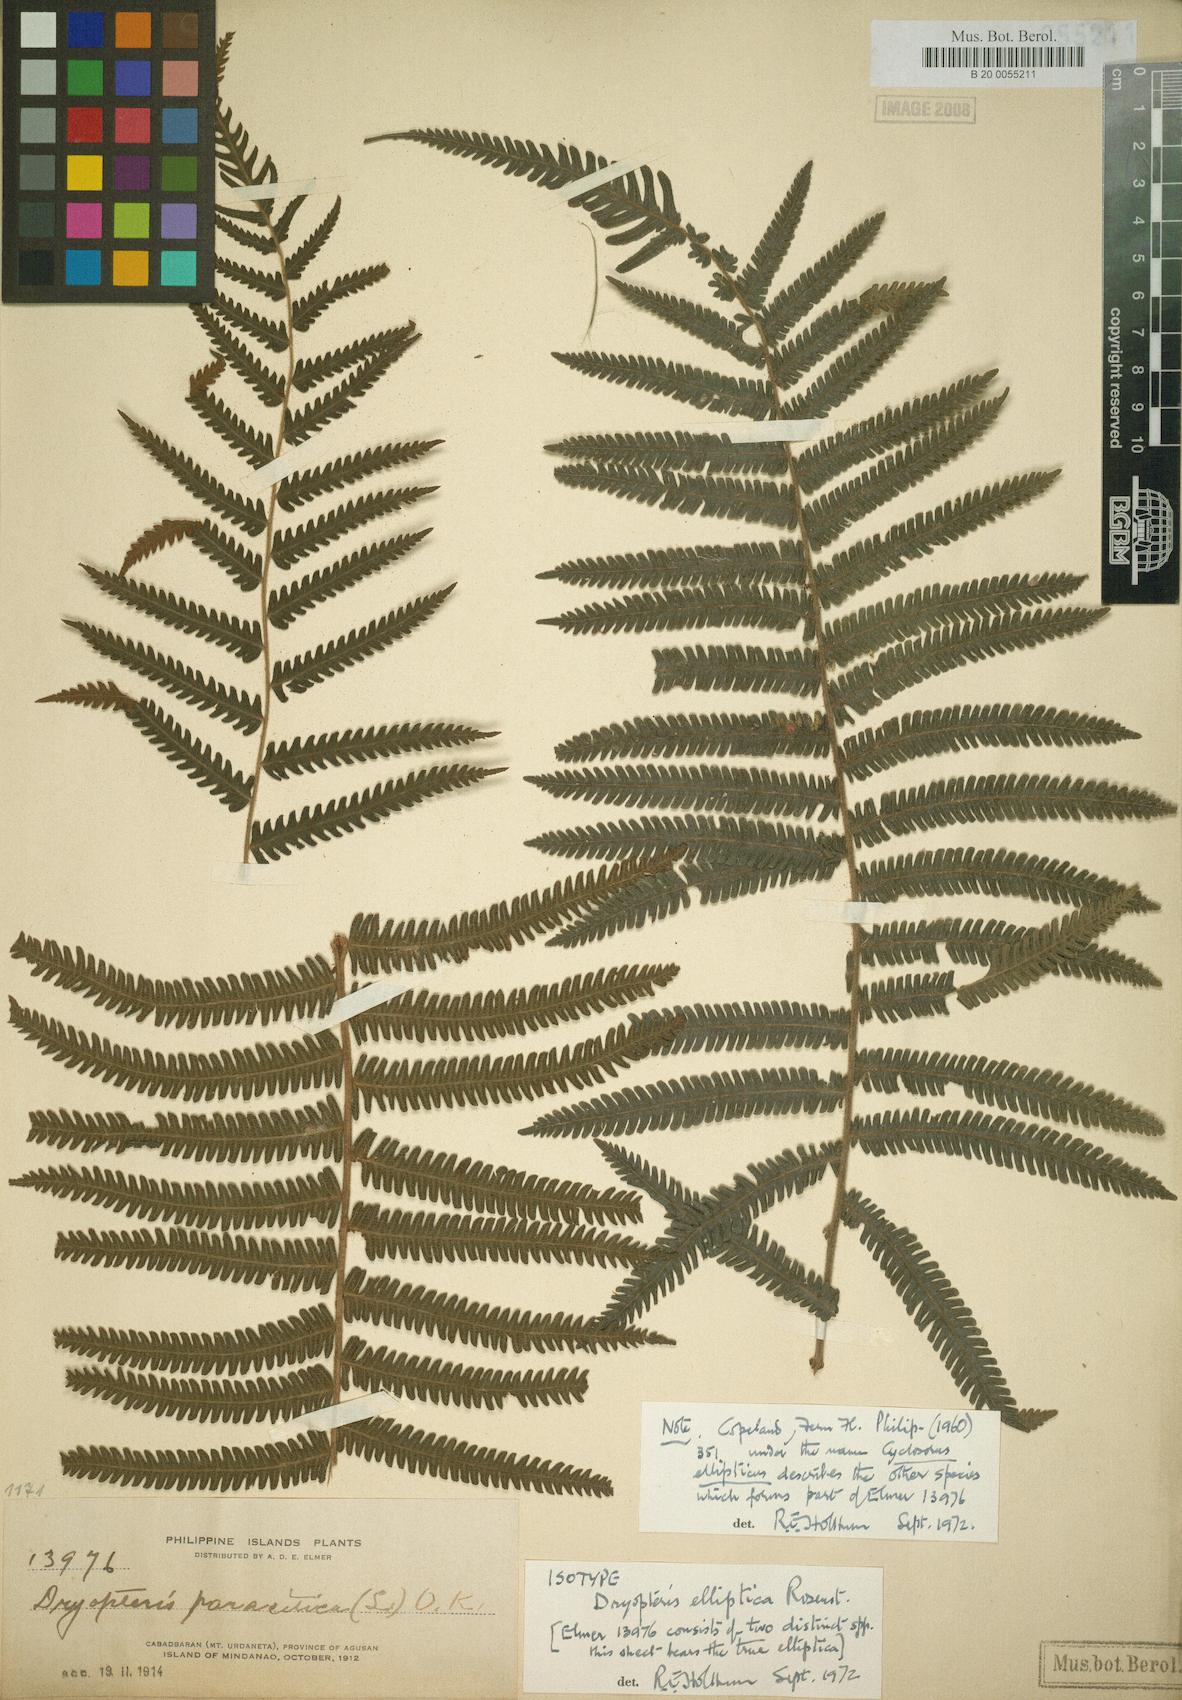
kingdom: Plantae
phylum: Tracheophyta
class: Polypodiopsida
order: Polypodiales
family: Thelypteridaceae
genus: Sphaerostephanos
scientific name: Sphaerostephanos ellipticus
